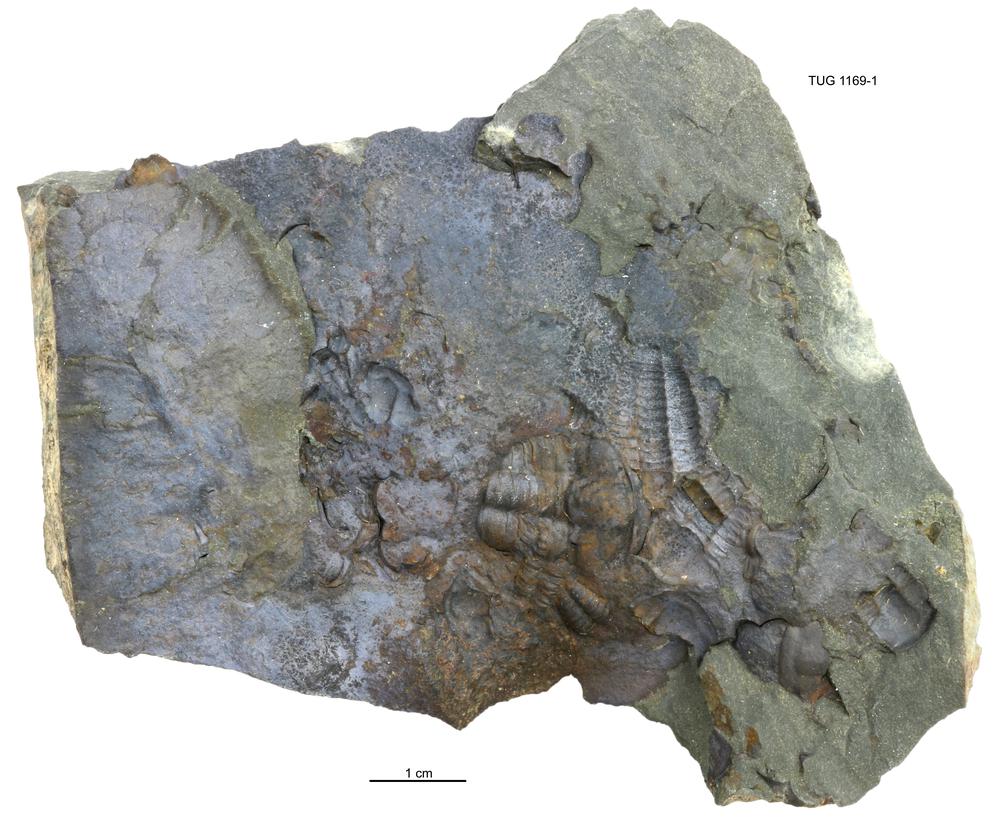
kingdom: Animalia
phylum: Arthropoda
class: Trilobita
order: Ptychopariida
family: Ellipsocephalidae
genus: Ellipsocephalus
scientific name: Ellipsocephalus
